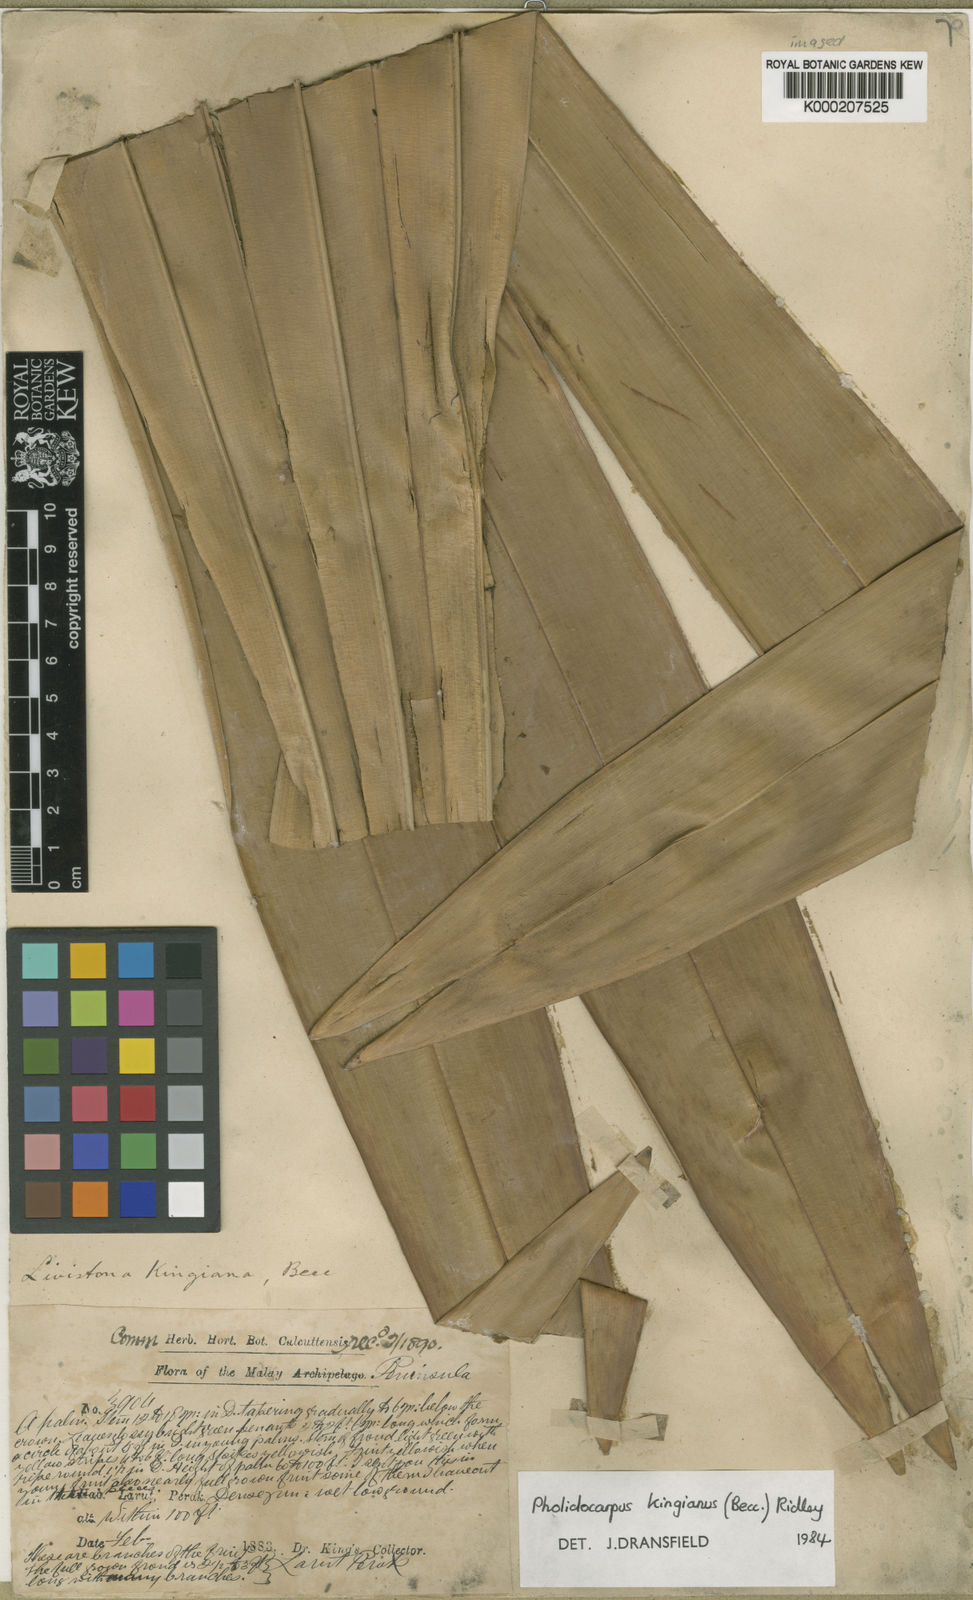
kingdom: Plantae
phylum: Tracheophyta
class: Liliopsida
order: Arecales
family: Arecaceae
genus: Pholidocarpus
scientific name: Pholidocarpus kingianus
